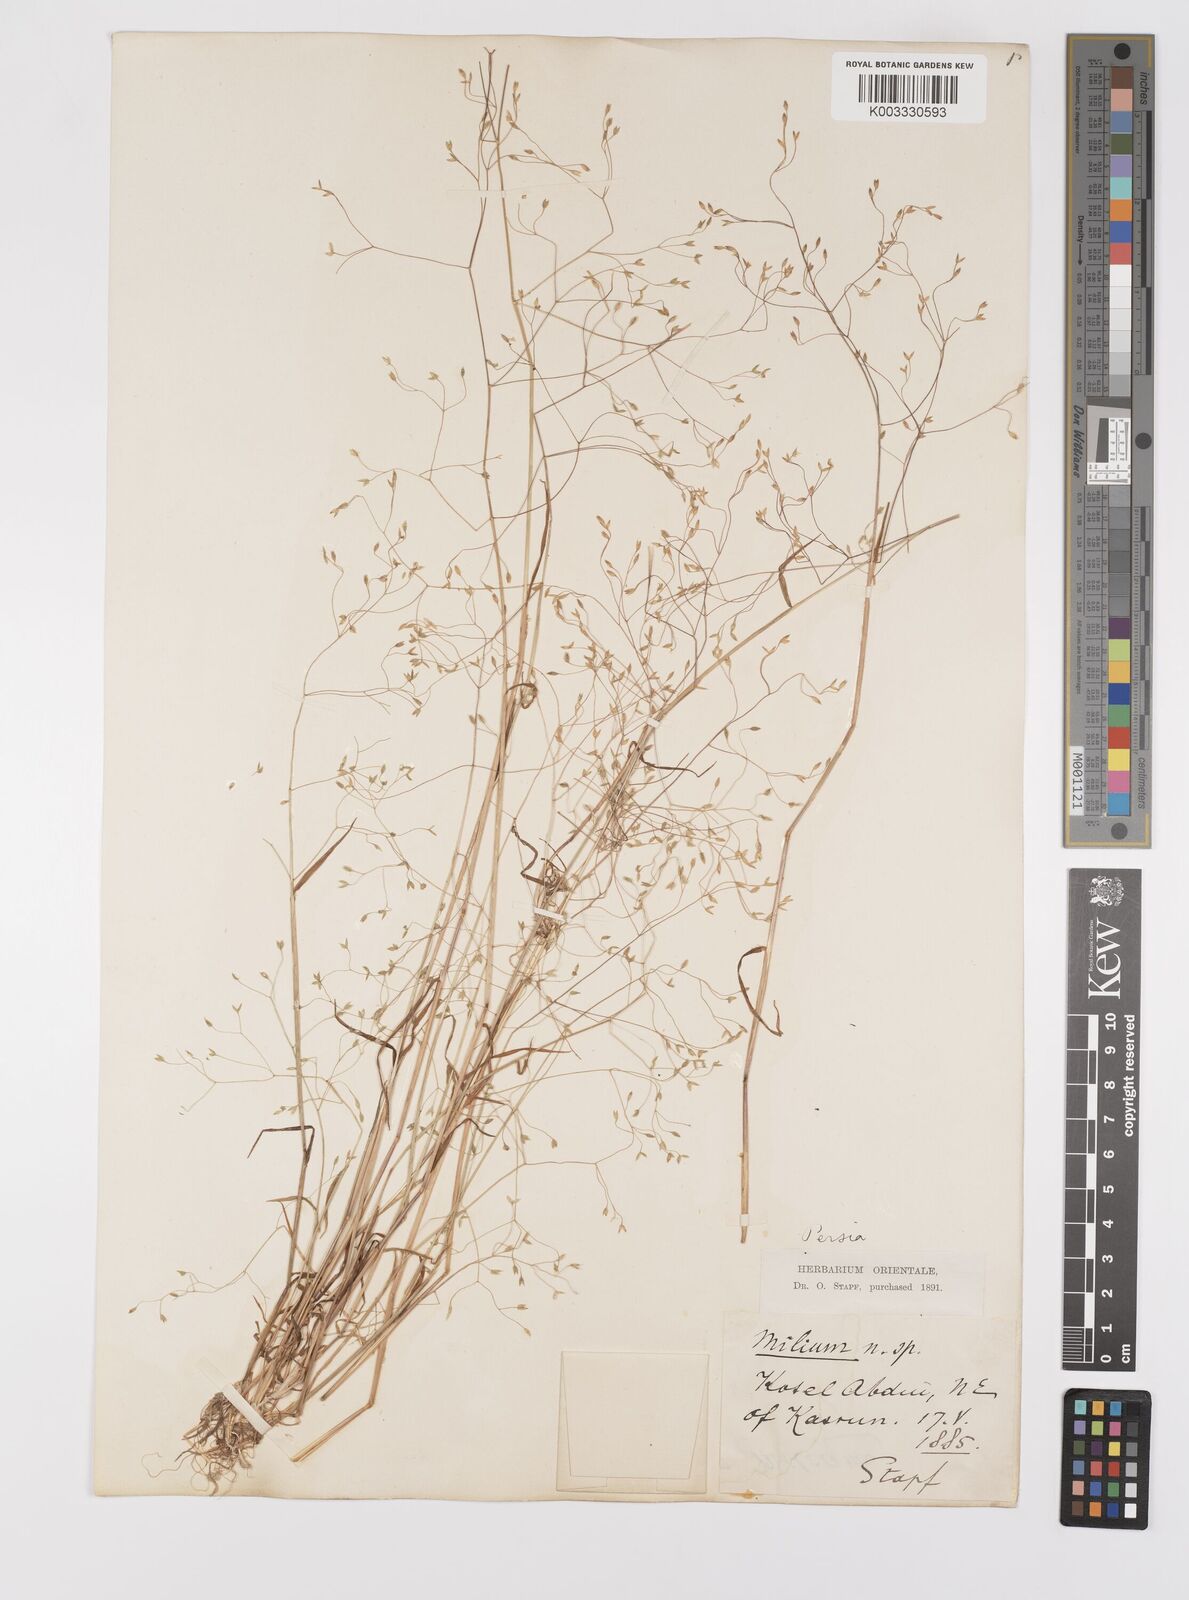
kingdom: Plantae
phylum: Tracheophyta
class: Liliopsida
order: Poales
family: Poaceae
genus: Milium
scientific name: Milium pedicellare
